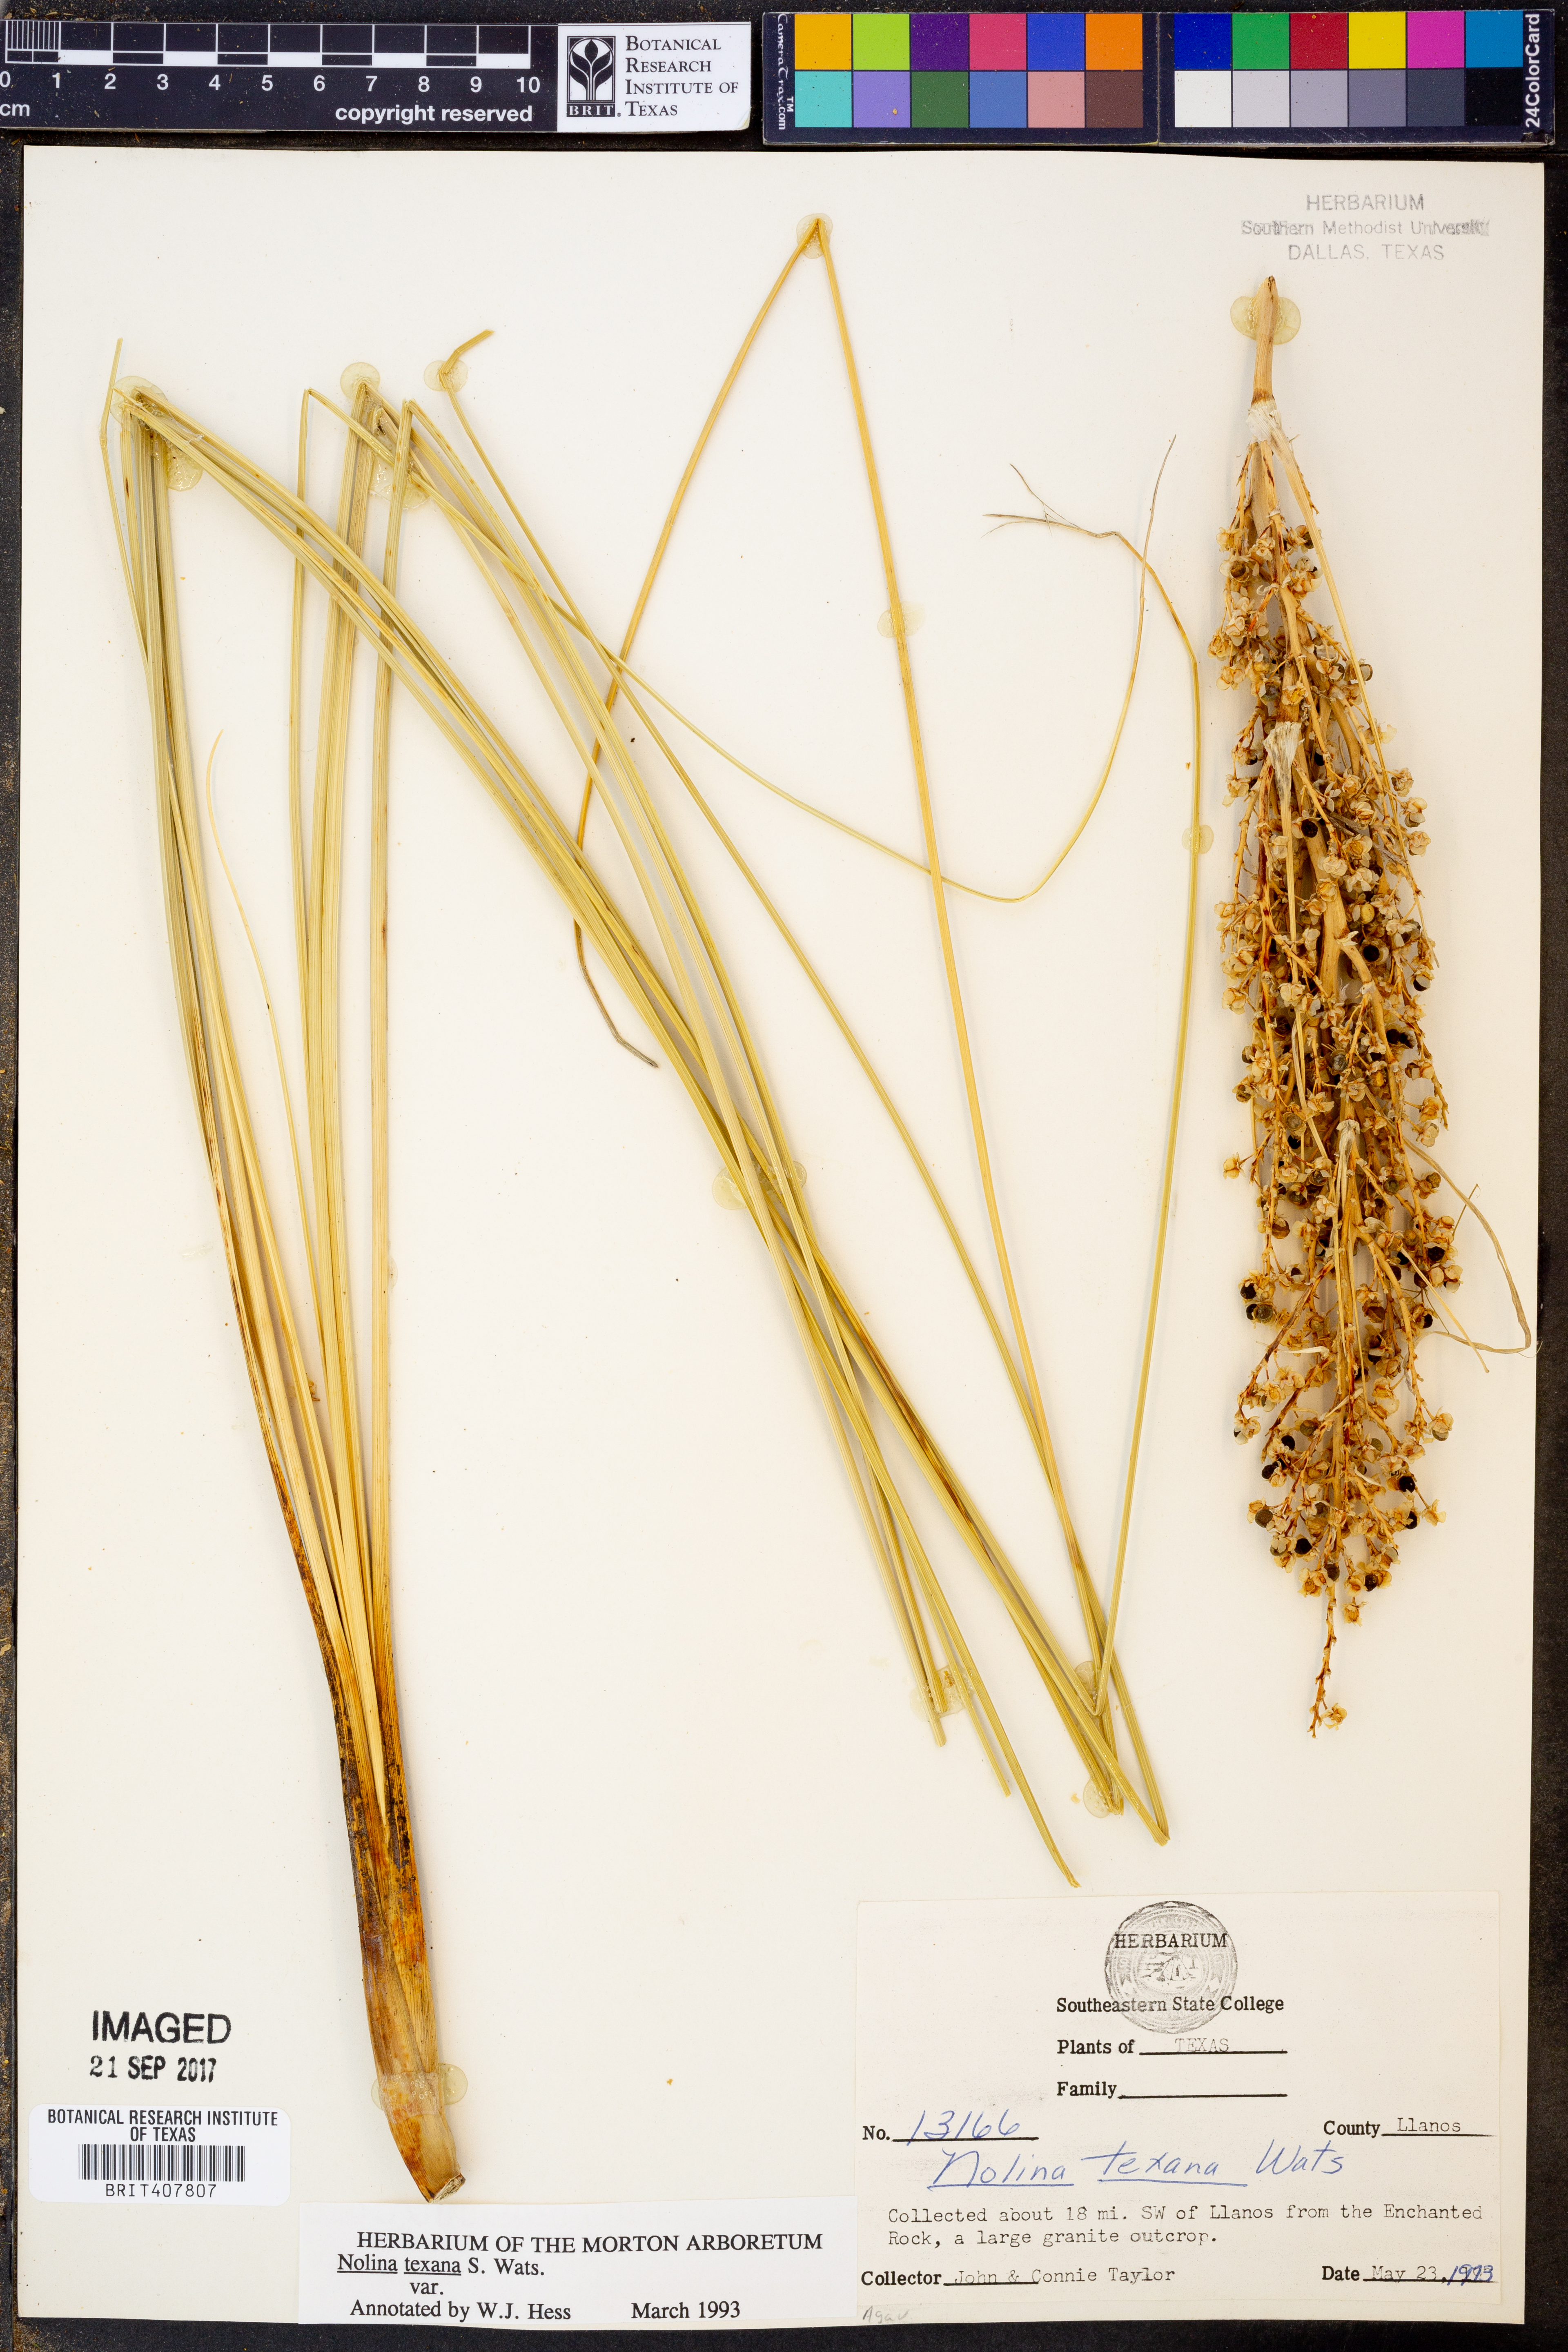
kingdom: Plantae
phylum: Tracheophyta
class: Liliopsida
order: Asparagales
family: Asparagaceae
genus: Nolina
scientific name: Nolina texana
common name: Texas sacahuiste
